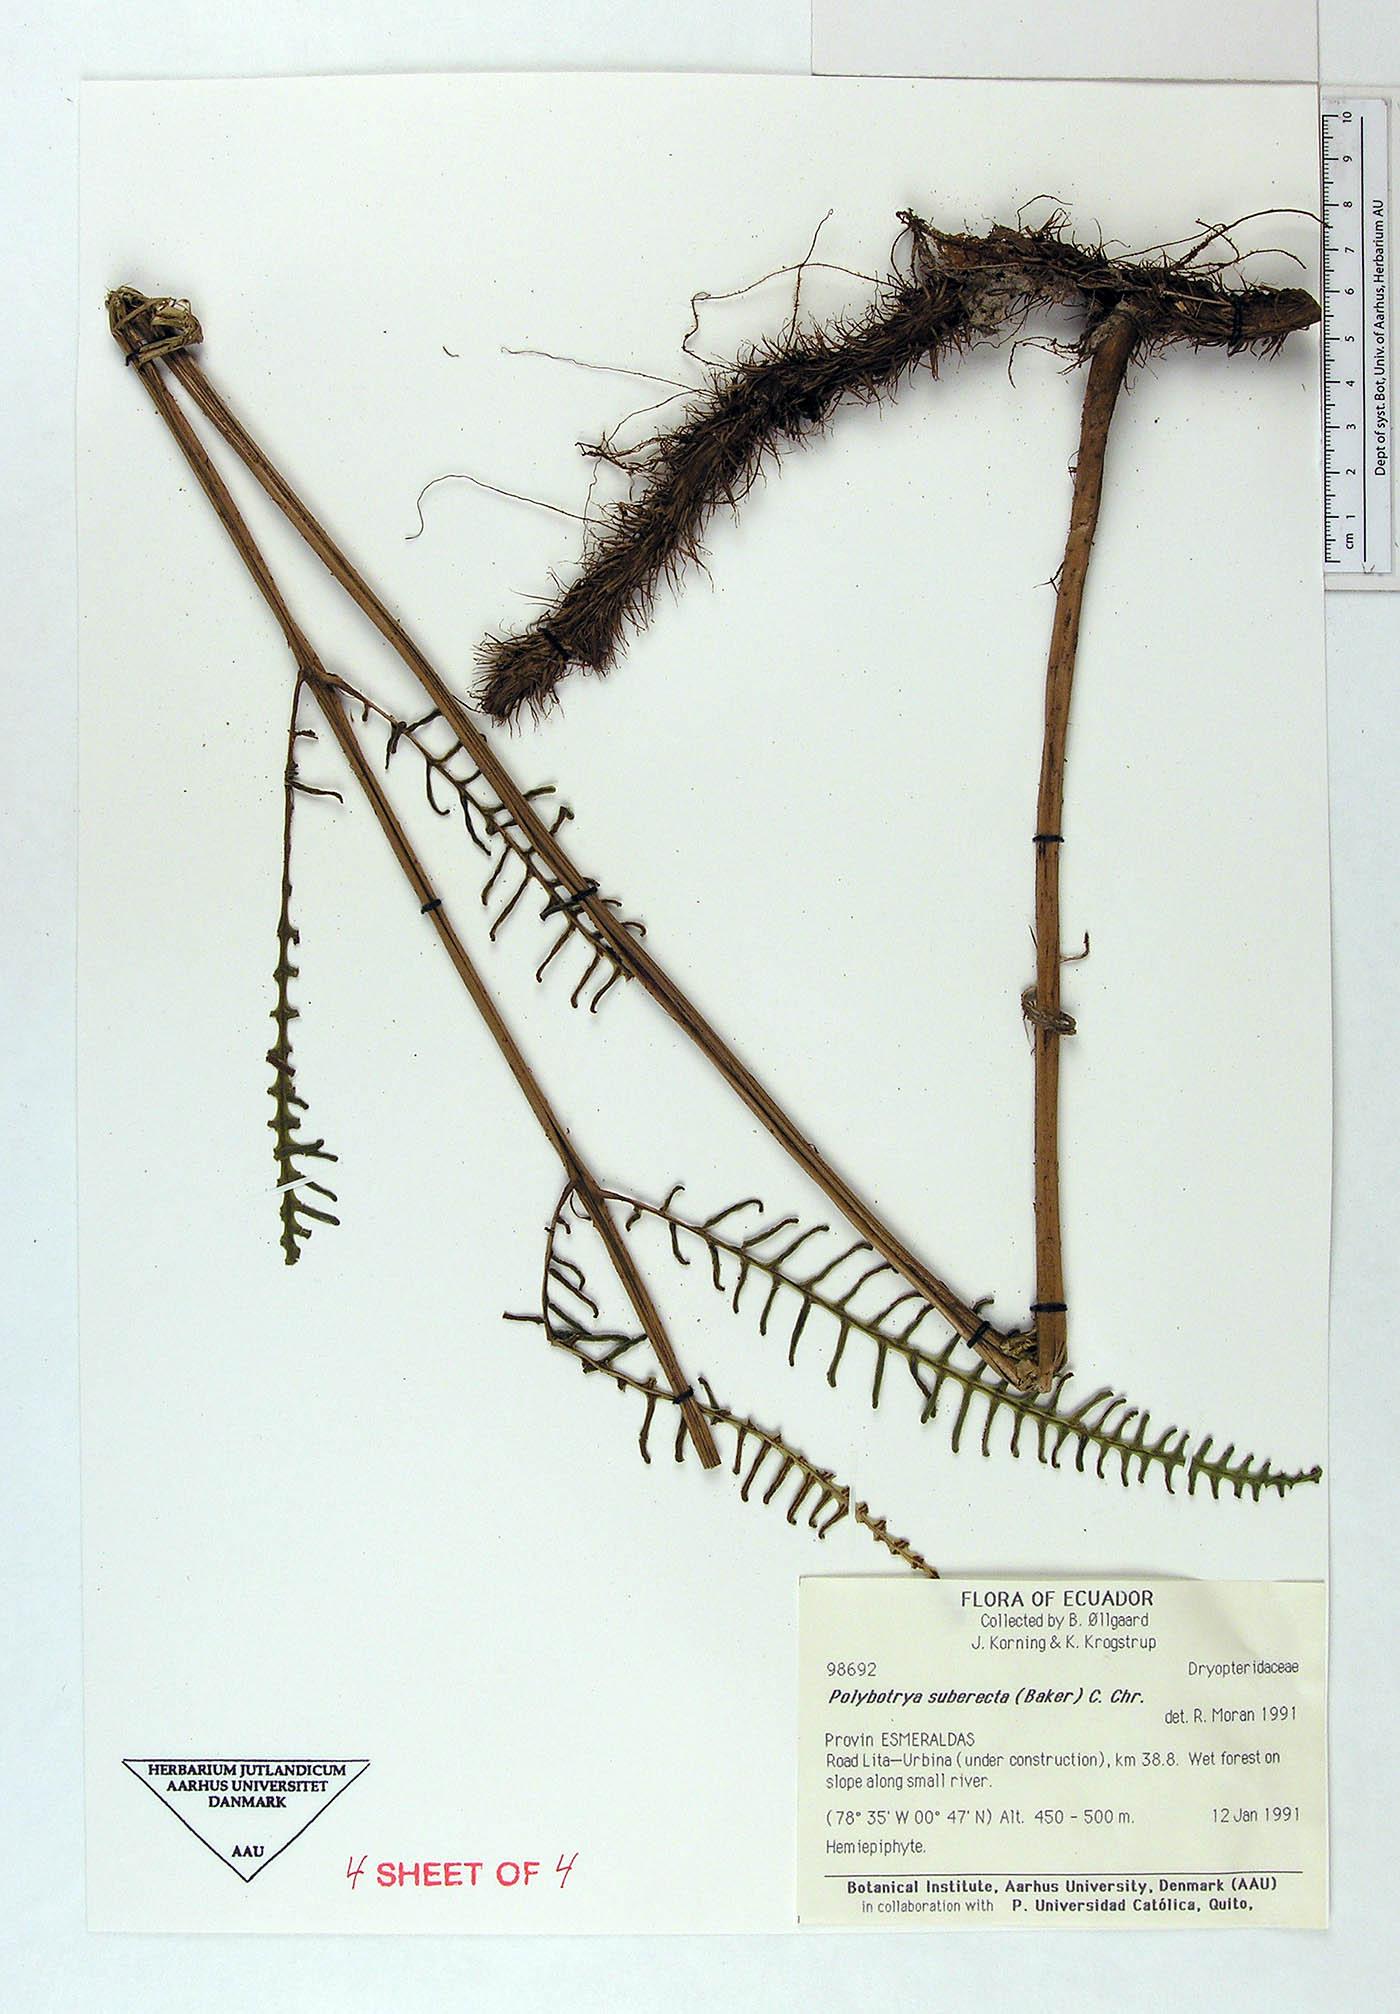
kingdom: Plantae
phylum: Tracheophyta
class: Polypodiopsida
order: Polypodiales
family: Dryopteridaceae
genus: Polybotrya
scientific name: Polybotrya suberecta
